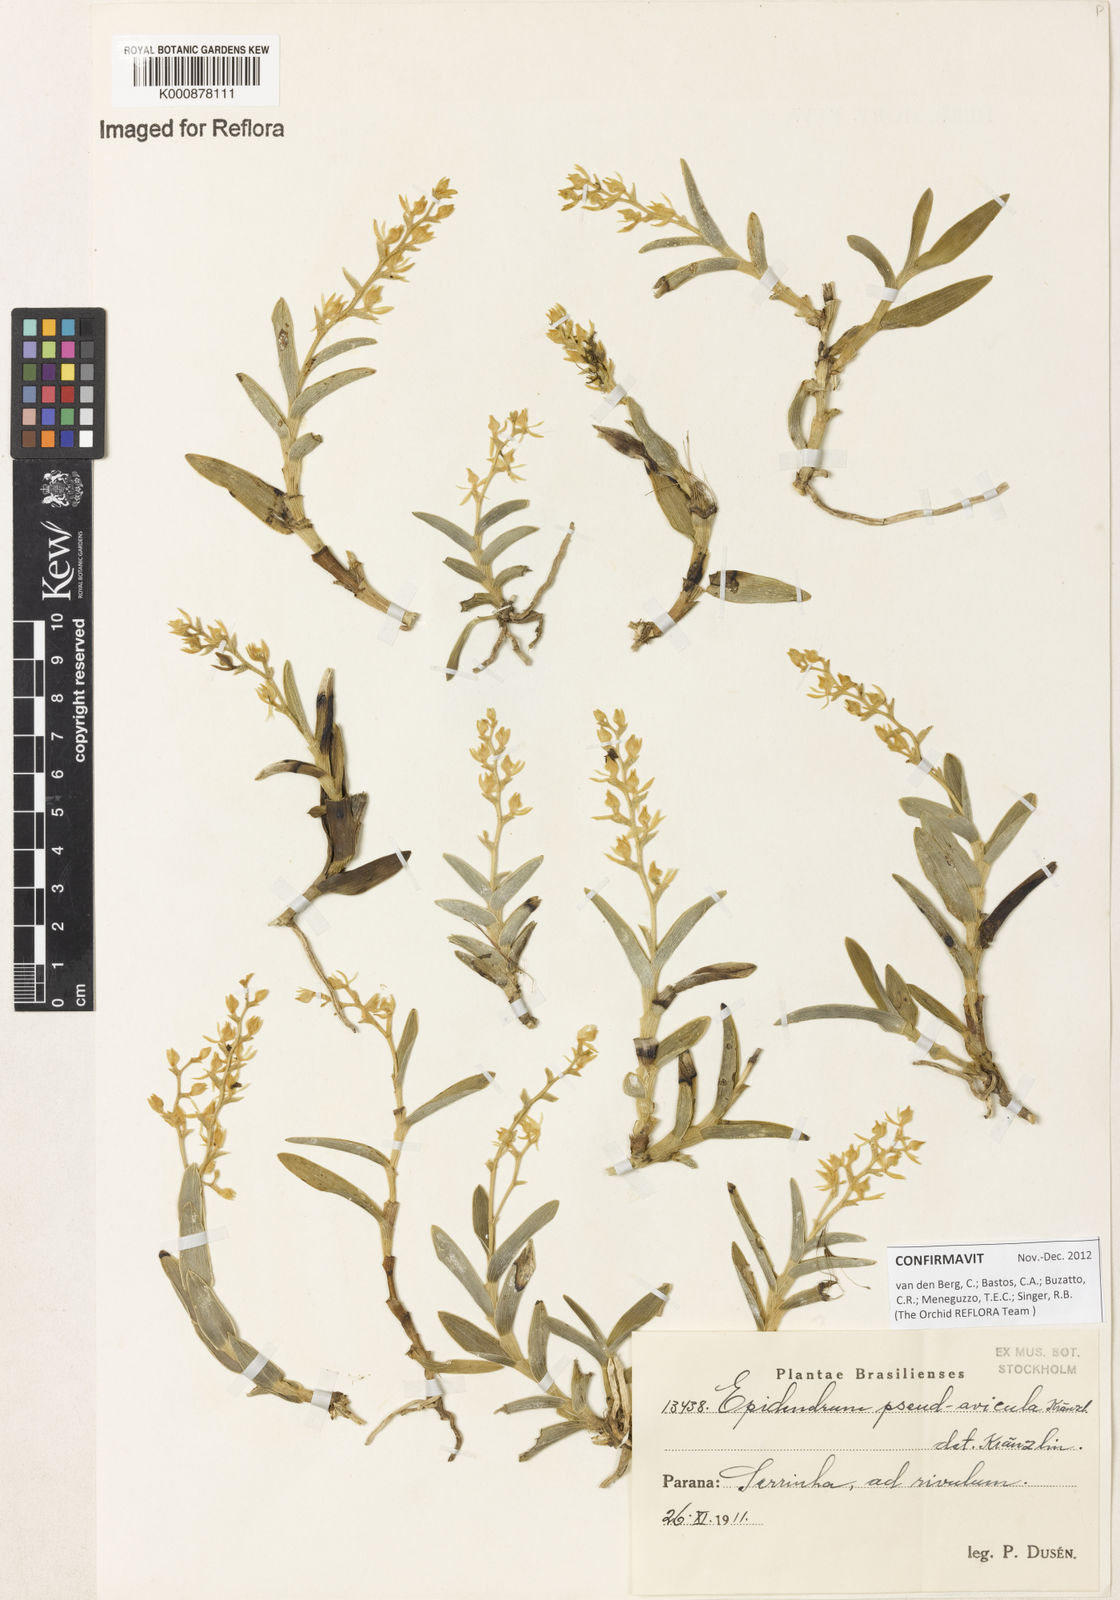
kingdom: Plantae
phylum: Tracheophyta
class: Liliopsida
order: Asparagales
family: Orchidaceae
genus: Epidendrum
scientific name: Epidendrum pseudavicula
